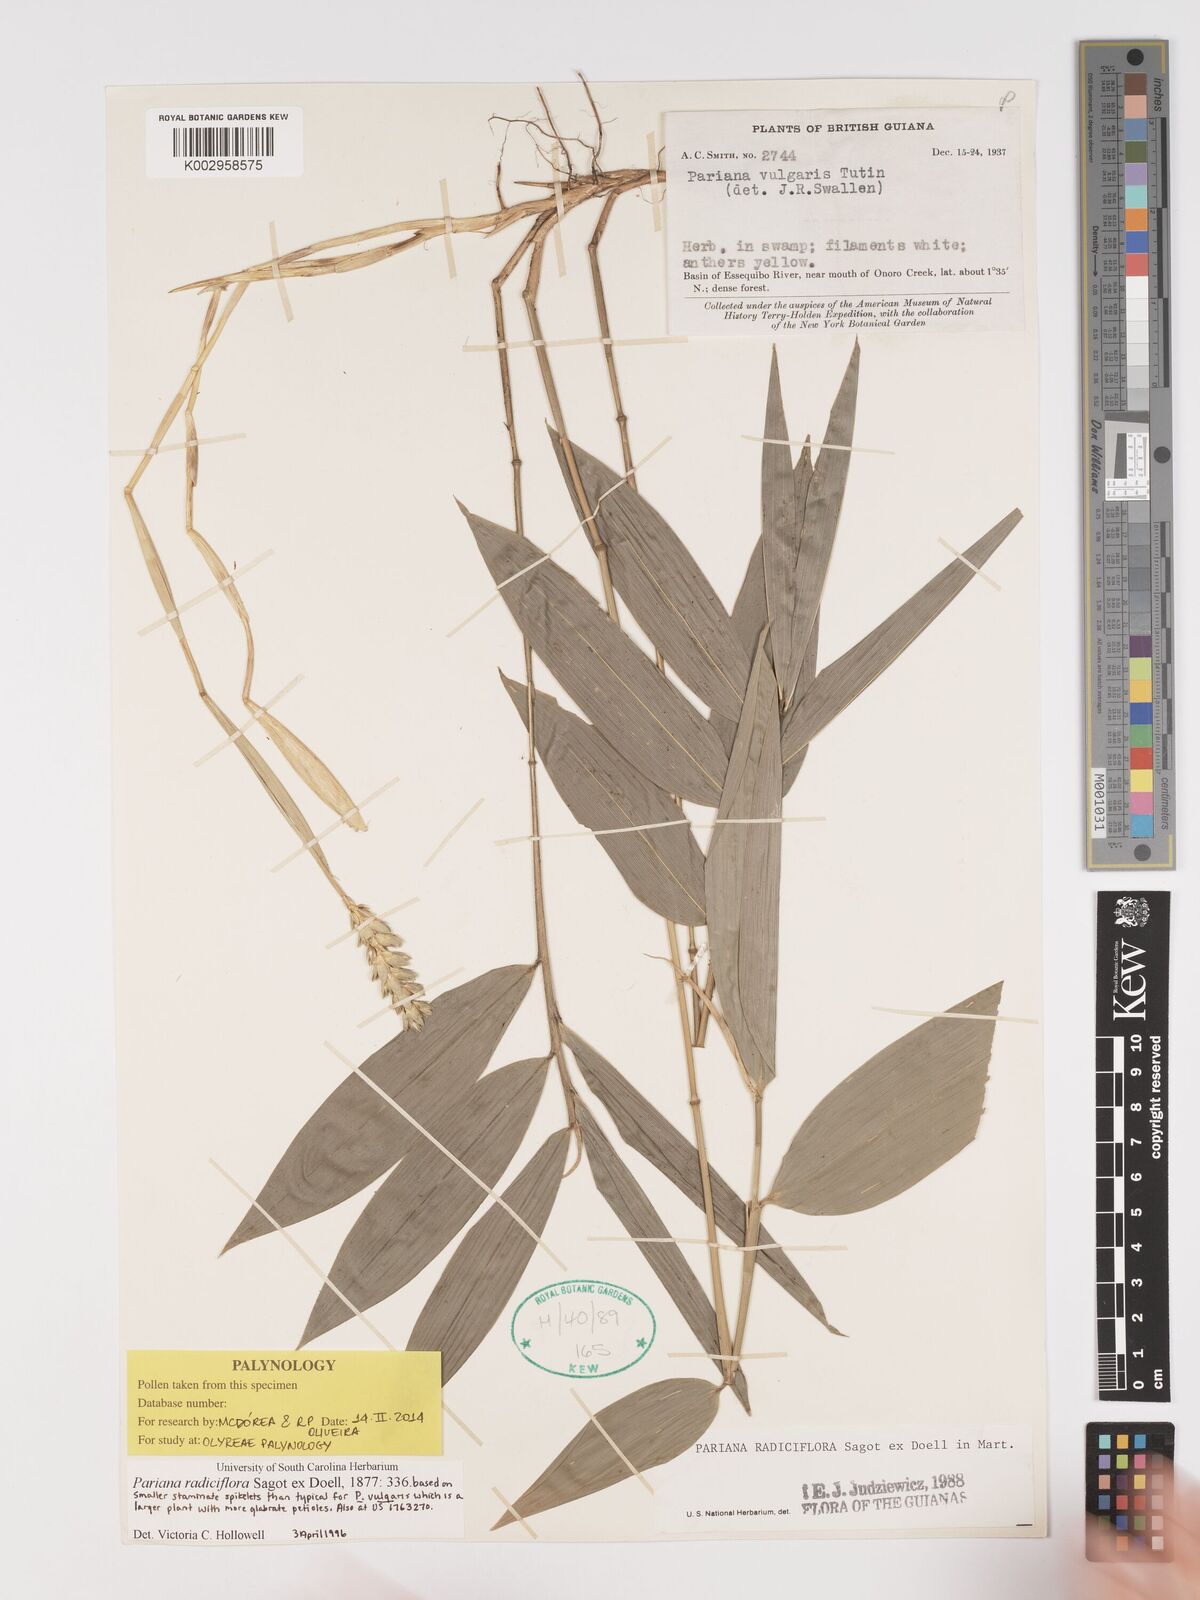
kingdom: Plantae
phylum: Tracheophyta
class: Liliopsida
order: Poales
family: Poaceae
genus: Pariana
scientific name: Pariana radiciflora
